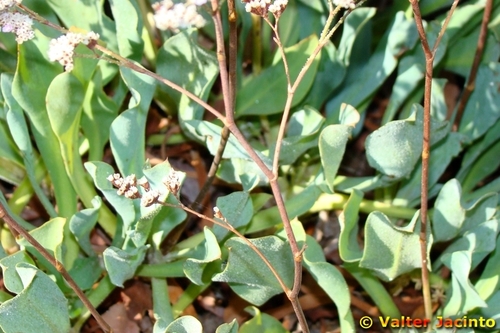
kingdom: Plantae
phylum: Tracheophyta
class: Magnoliopsida
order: Caryophyllales
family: Plumbaginaceae
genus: Limonium
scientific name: Limonium vulgare
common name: Common sea-lavender
